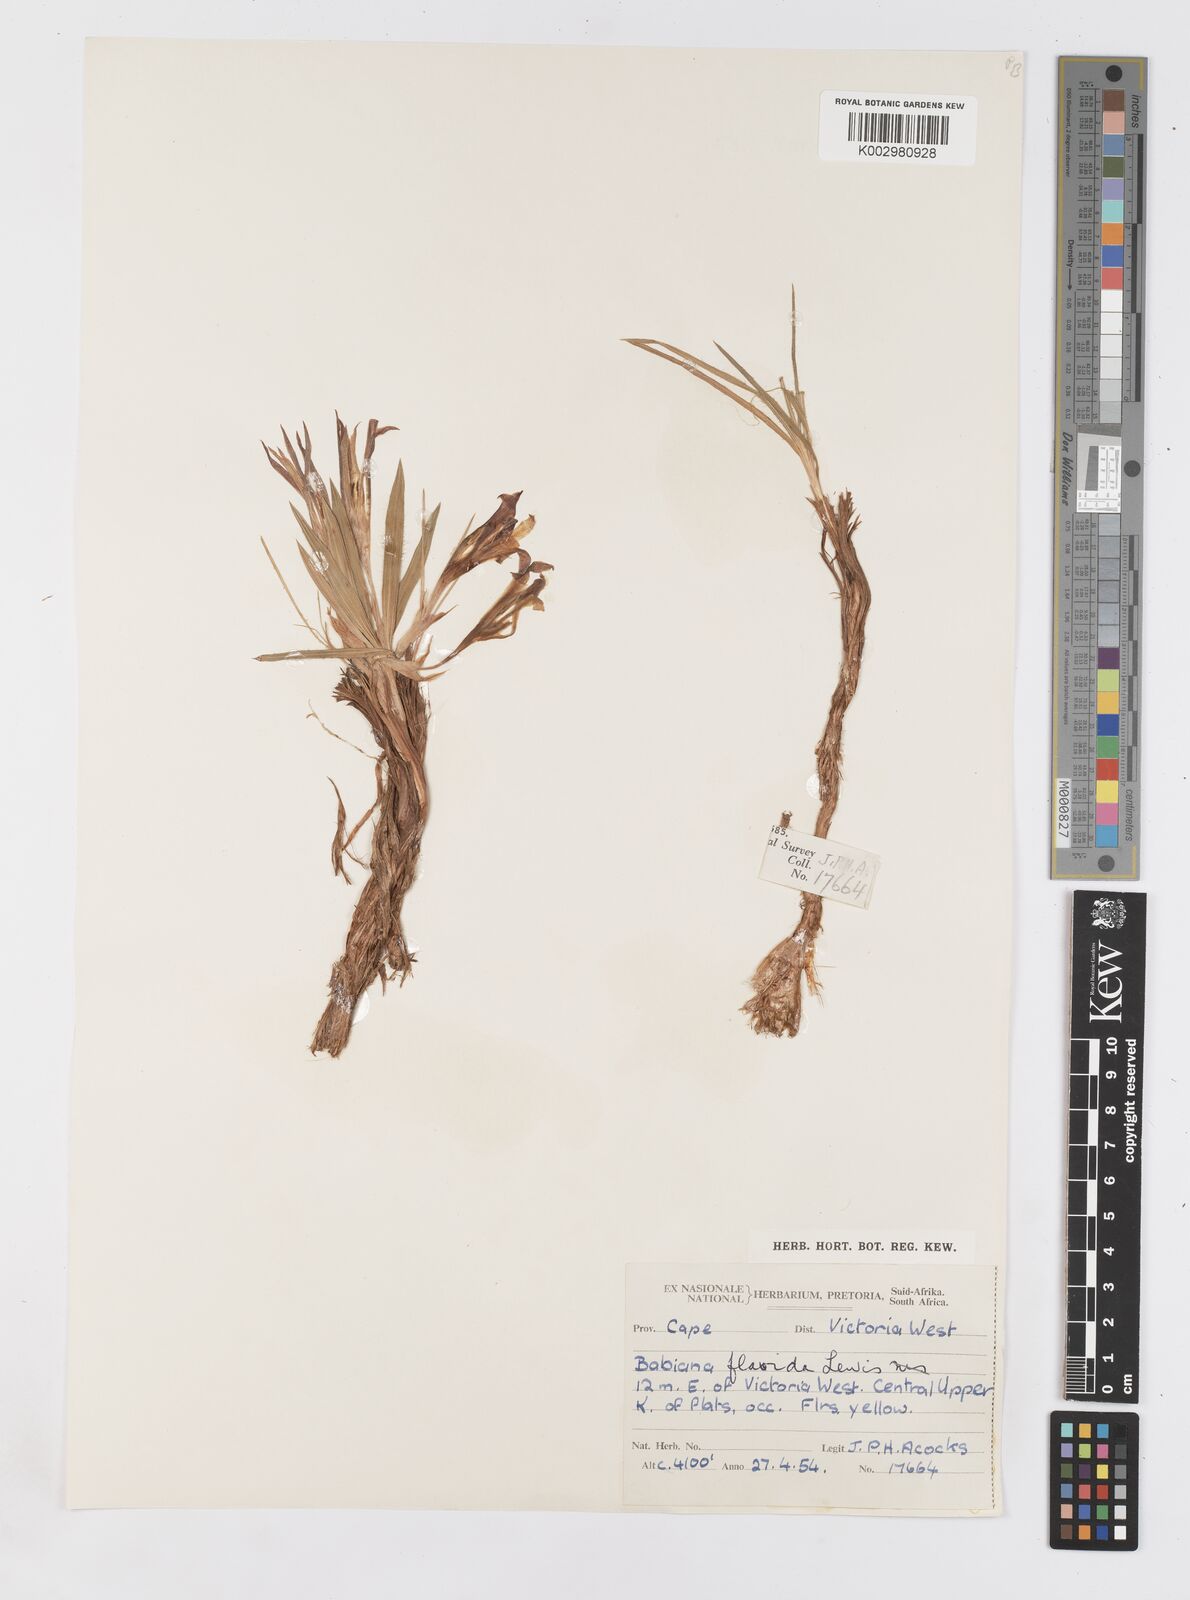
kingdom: Plantae
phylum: Tracheophyta
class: Liliopsida
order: Asparagales
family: Iridaceae
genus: Babiana
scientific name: Babiana hypogaea
